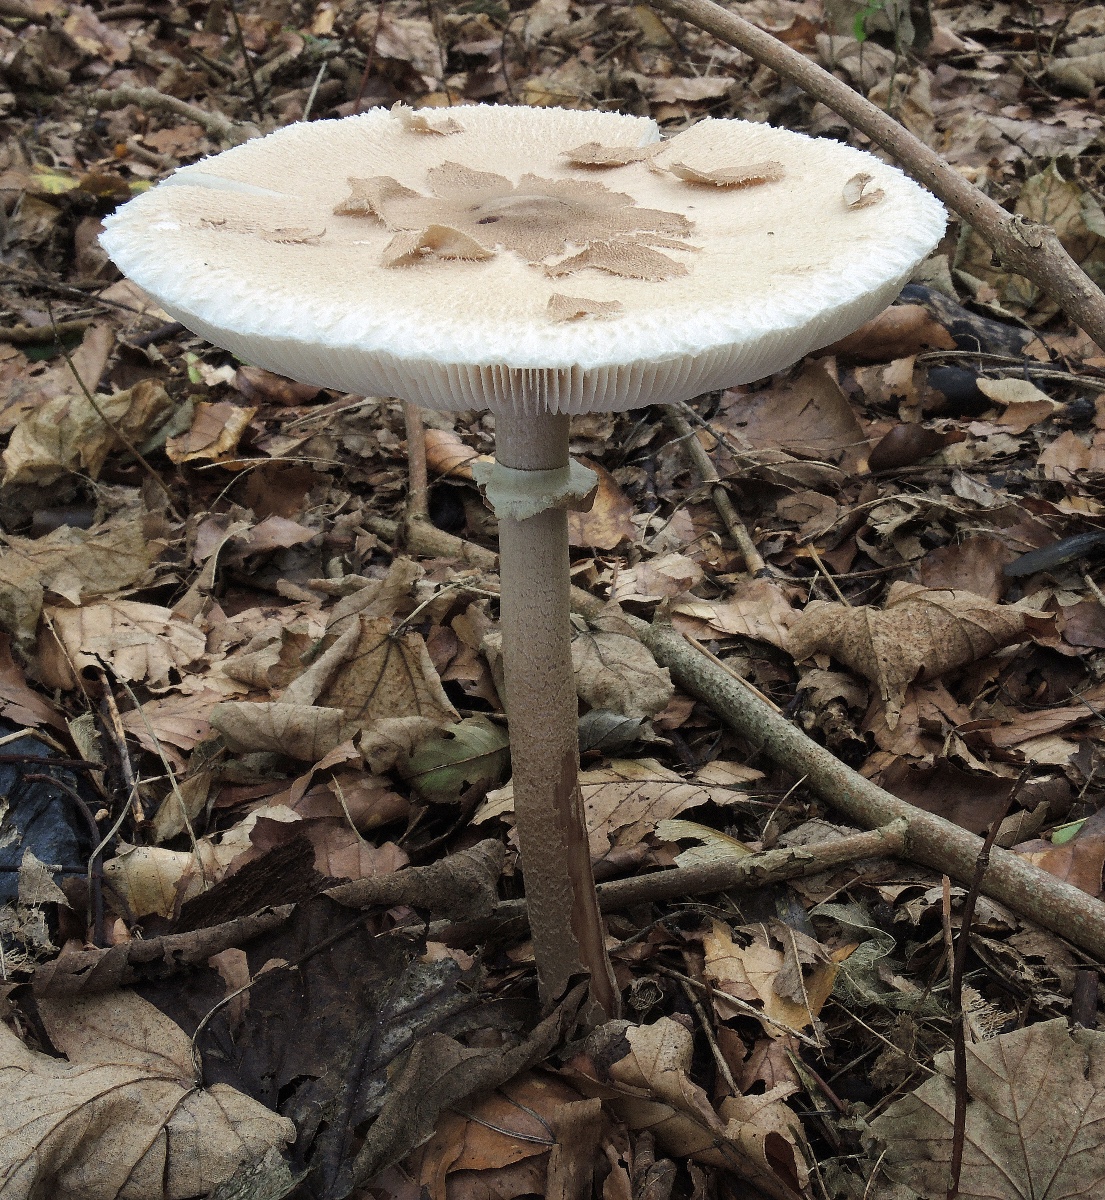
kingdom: Fungi
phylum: Basidiomycota
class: Agaricomycetes
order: Agaricales
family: Agaricaceae
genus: Macrolepiota
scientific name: Macrolepiota mastoidea
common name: puklet kæmpeparasolhat
